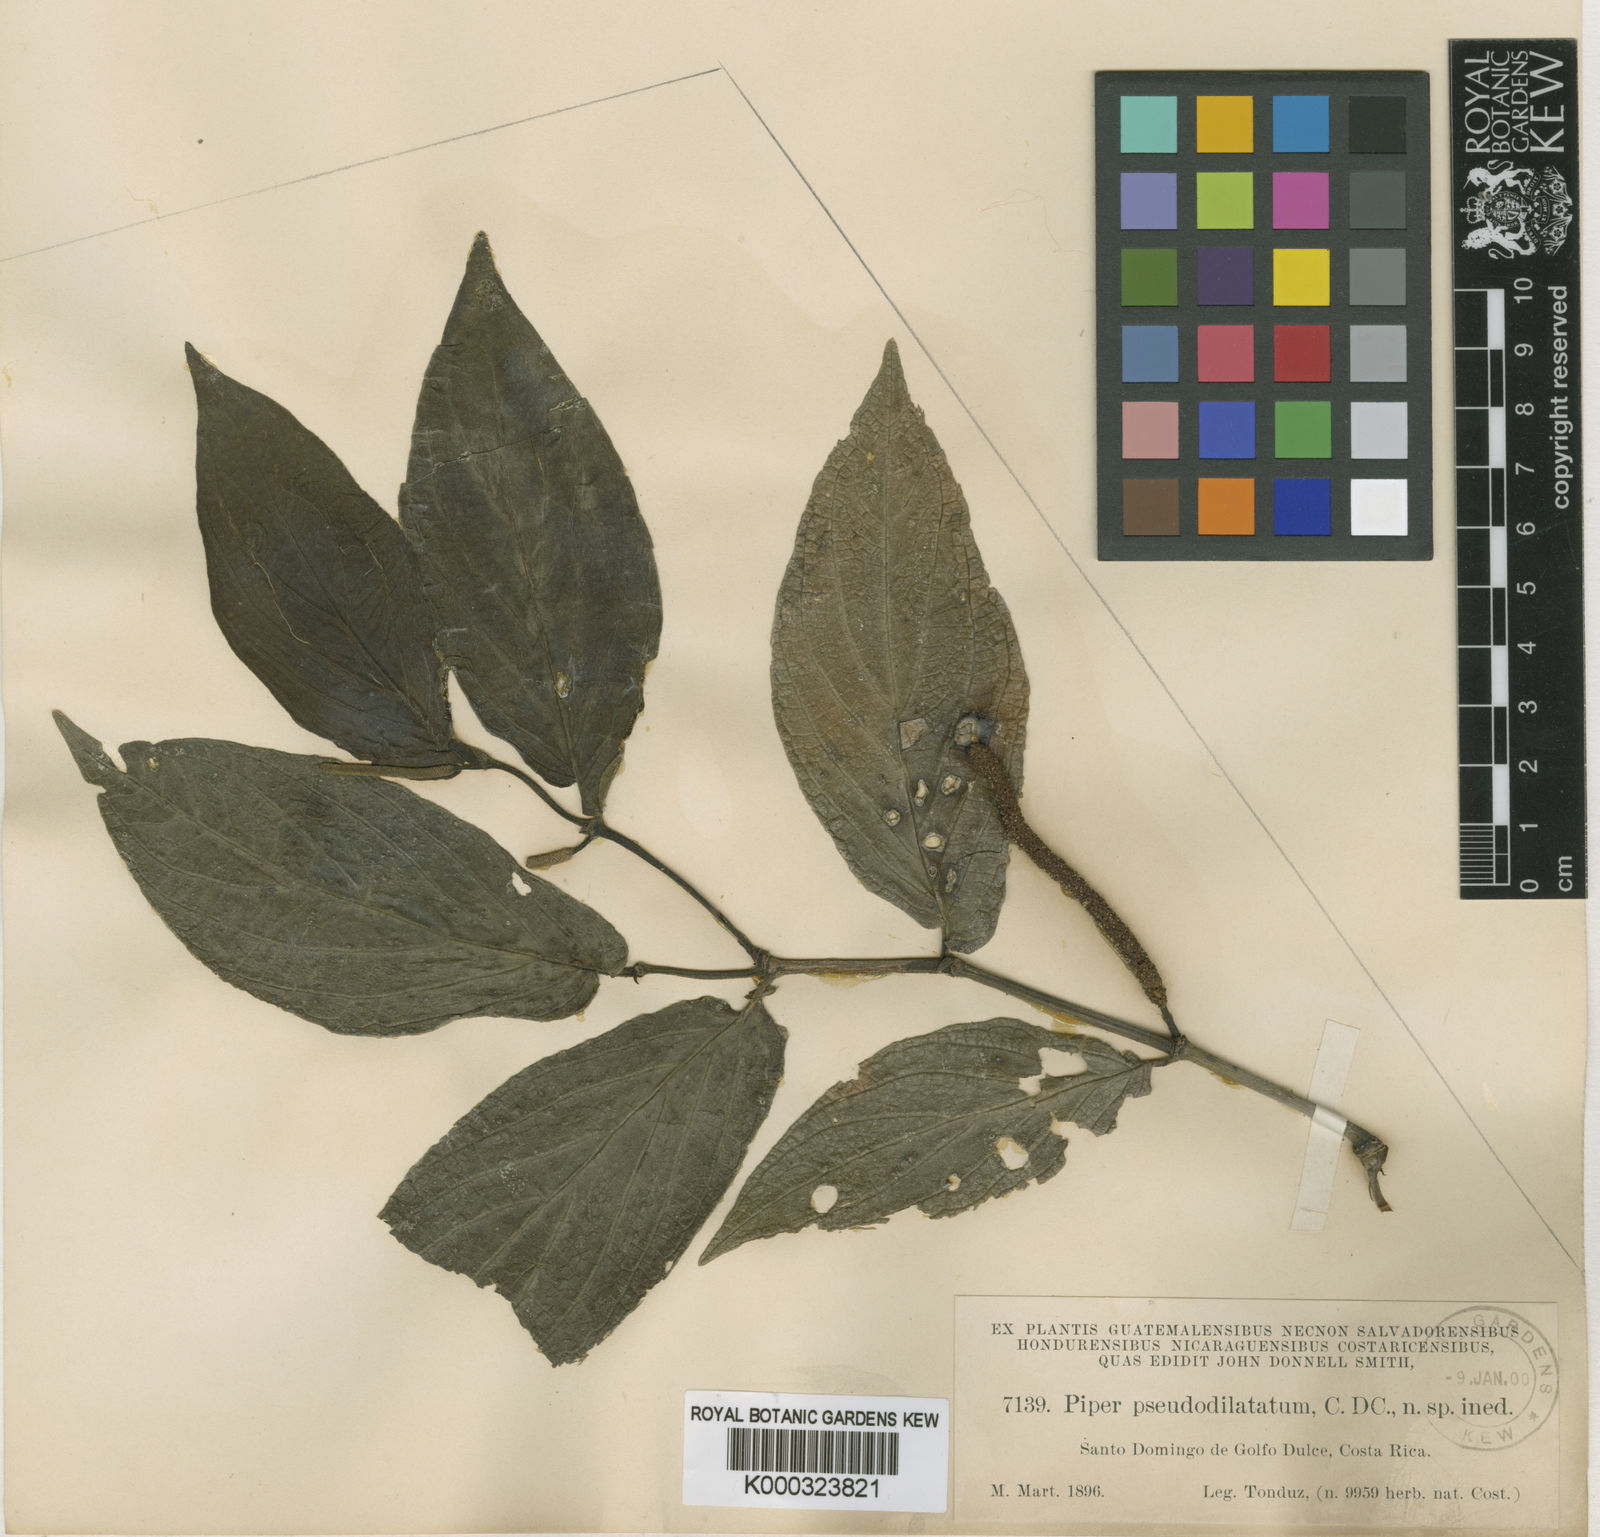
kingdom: Plantae
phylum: Tracheophyta
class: Magnoliopsida
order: Piperales
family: Piperaceae
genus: Piper
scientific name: Piper pseudodilatatum
